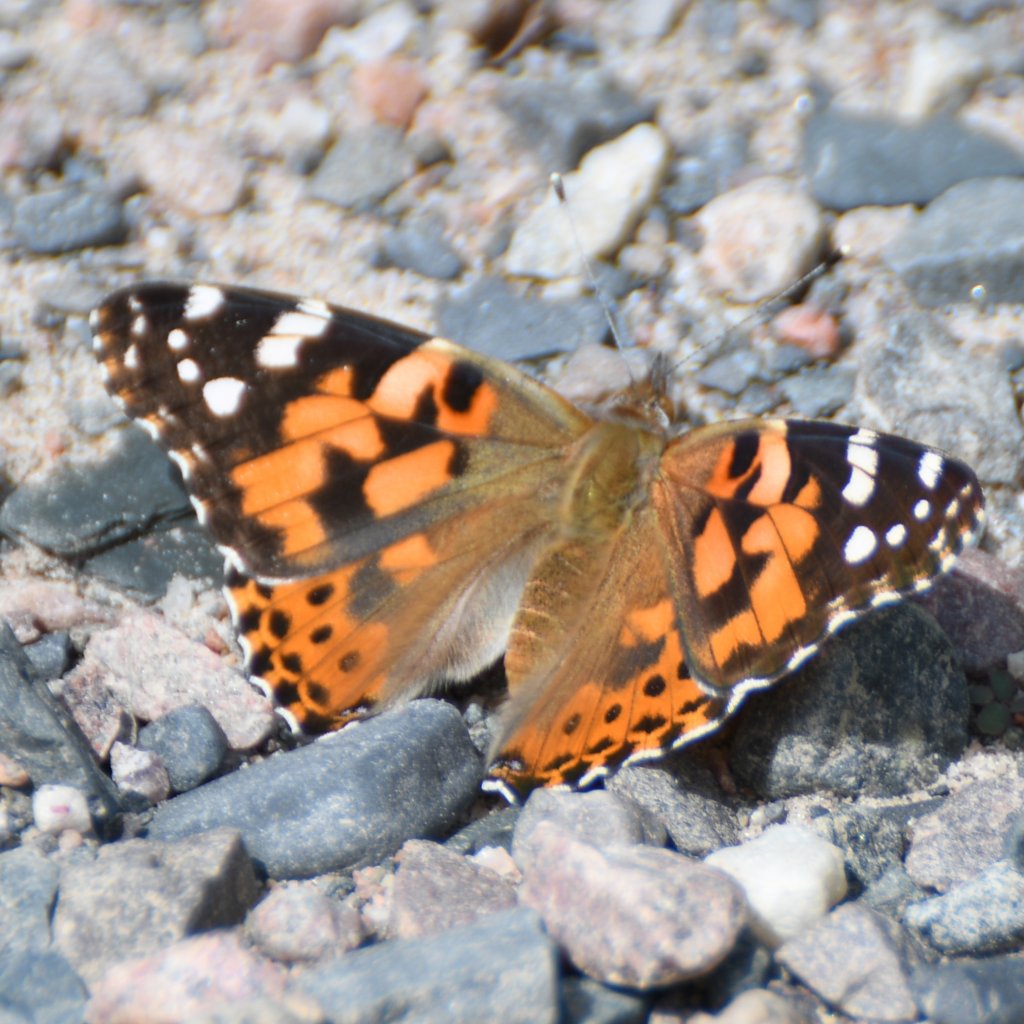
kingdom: Animalia
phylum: Arthropoda
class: Insecta
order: Lepidoptera
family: Nymphalidae
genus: Vanessa
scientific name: Vanessa cardui
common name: Painted Lady
